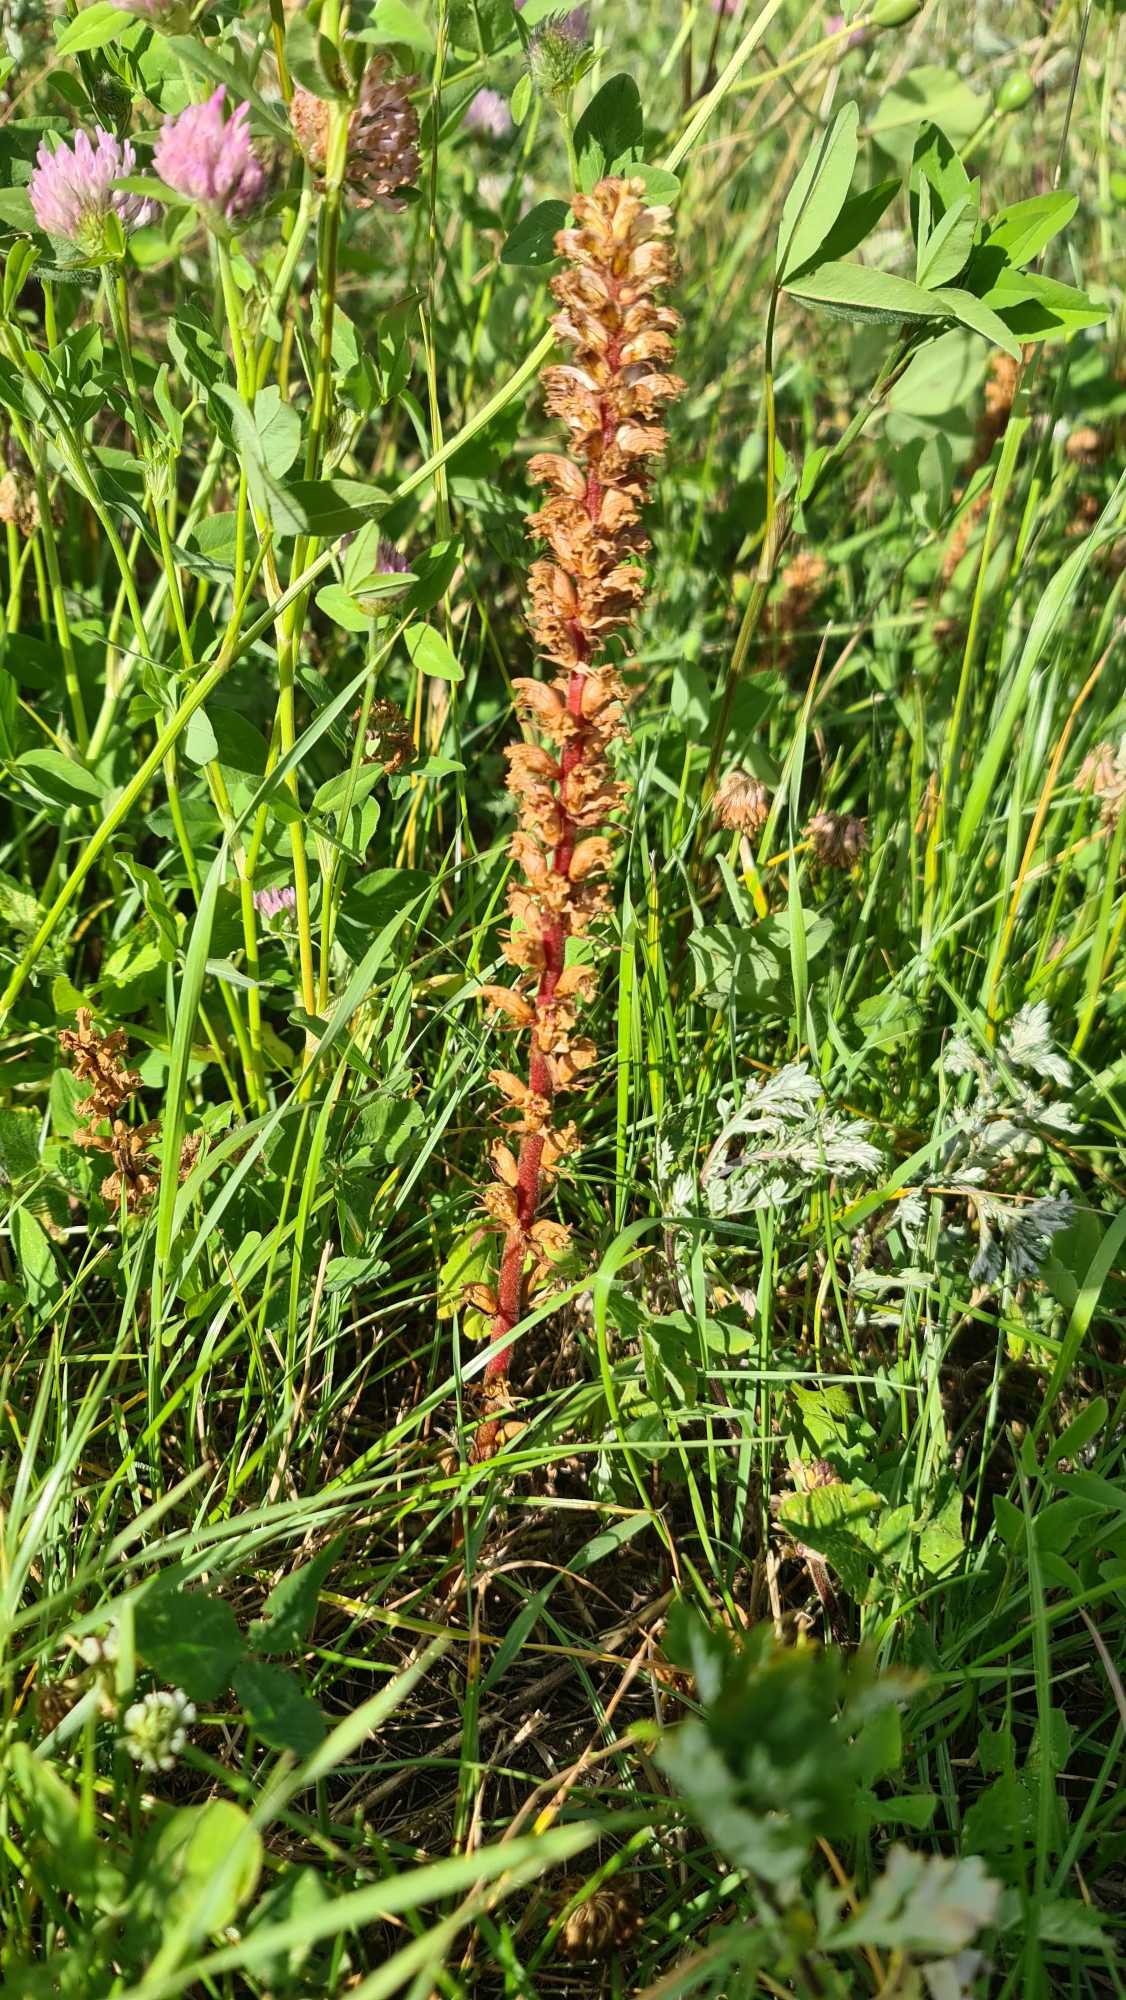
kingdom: Plantae
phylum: Tracheophyta
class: Magnoliopsida
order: Lamiales
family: Orobanchaceae
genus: Orobanche
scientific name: Orobanche minor
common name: Kløver-gyvelkvæler
